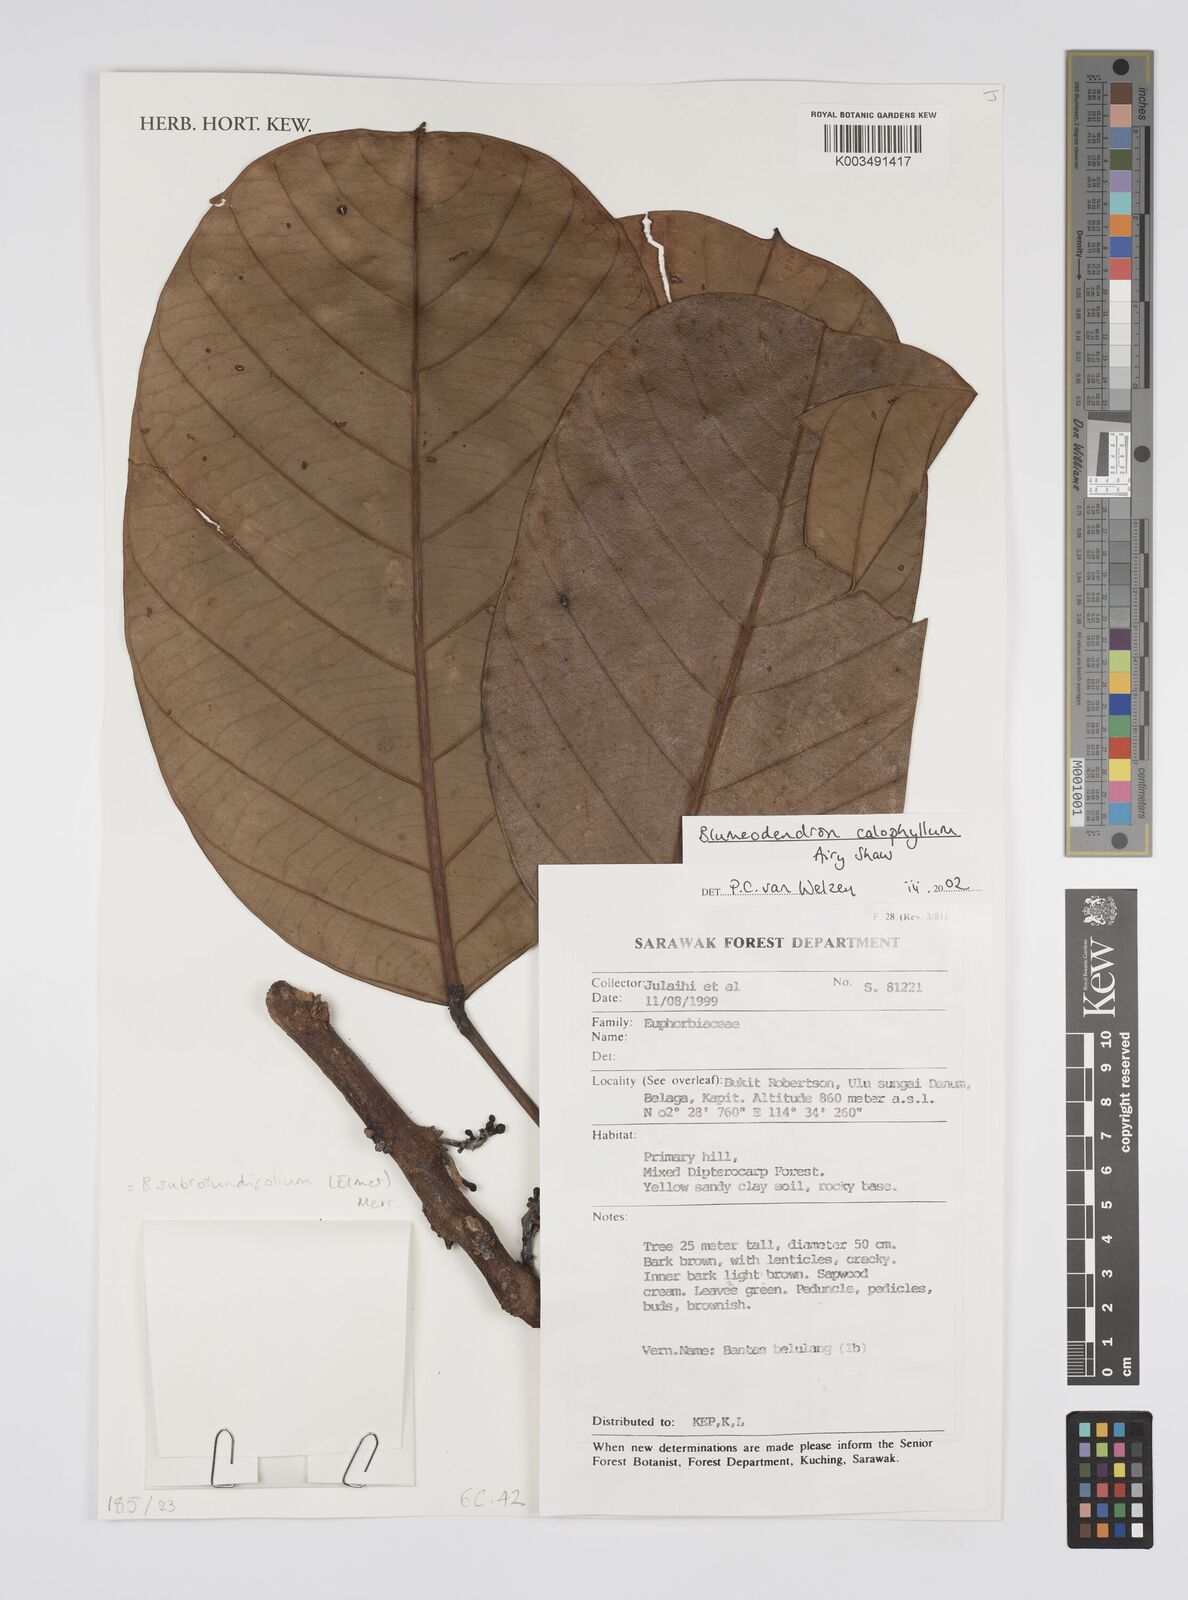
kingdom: Plantae
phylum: Tracheophyta
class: Magnoliopsida
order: Malpighiales
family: Euphorbiaceae
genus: Blumeodendron
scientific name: Blumeodendron subrotundifolium
